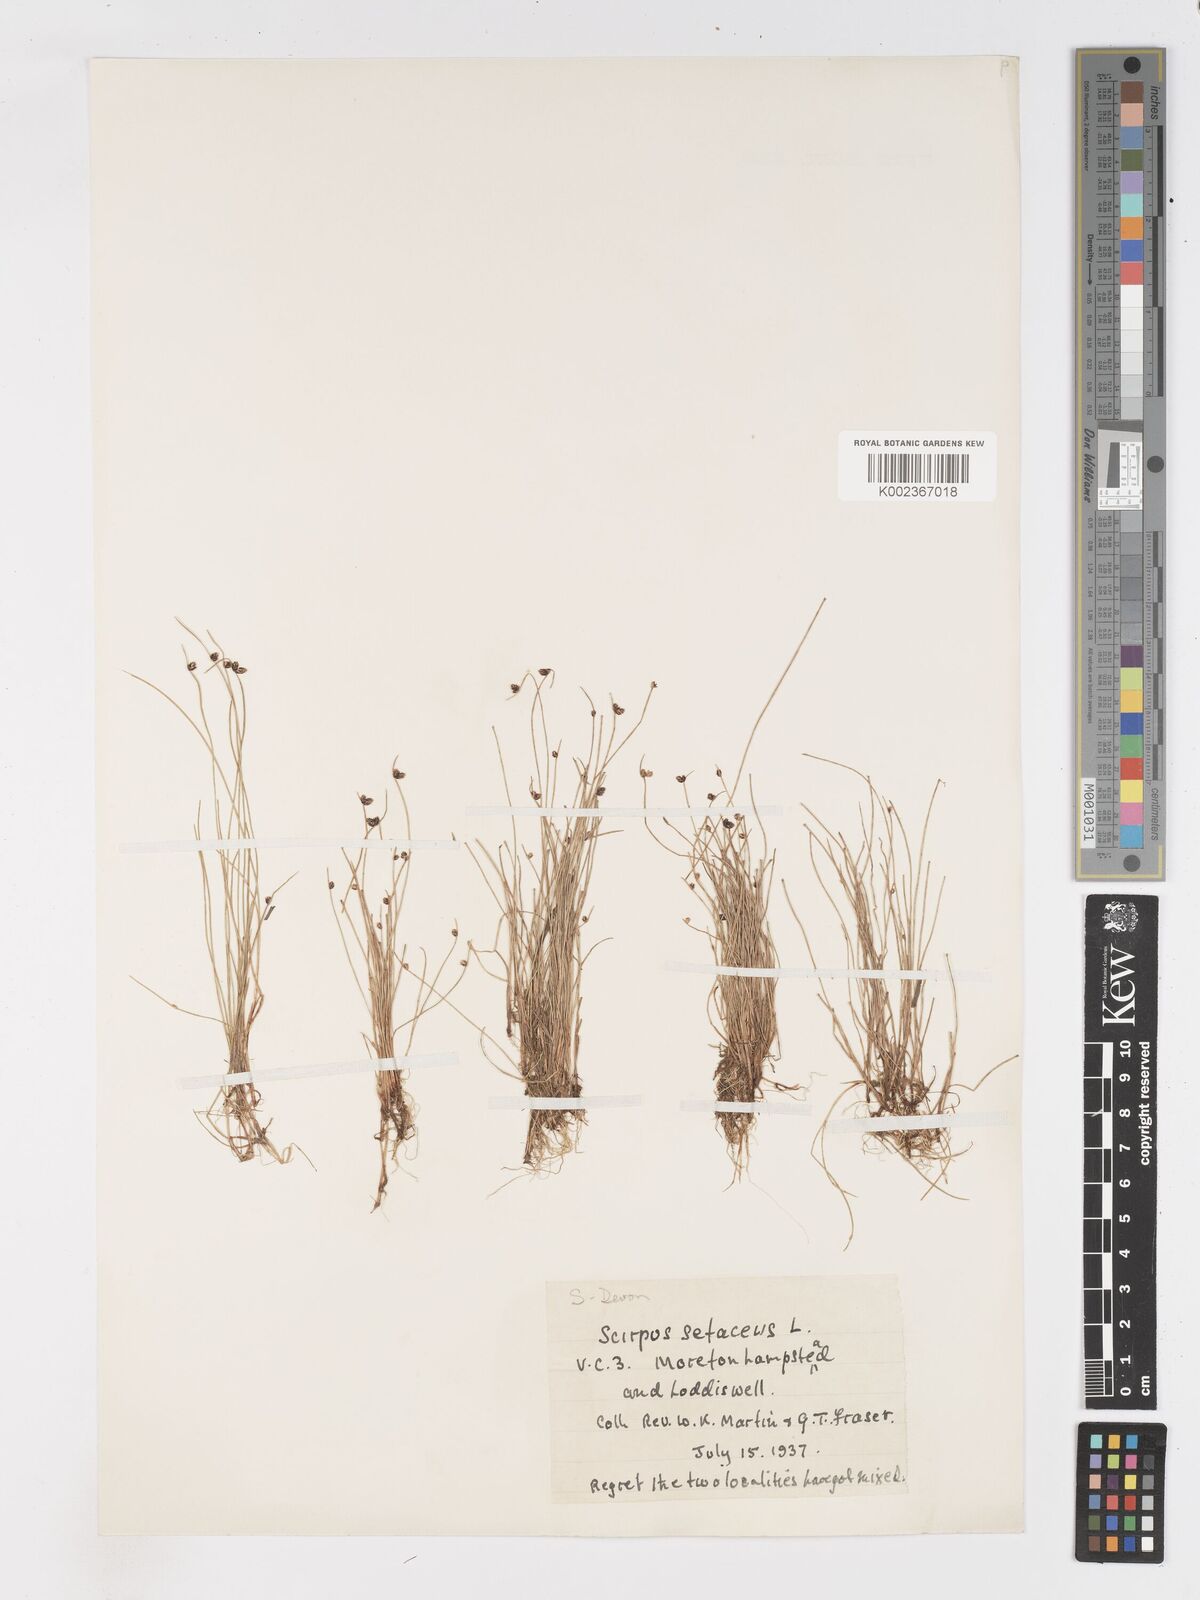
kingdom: Plantae
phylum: Tracheophyta
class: Liliopsida
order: Poales
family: Cyperaceae
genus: Isolepis
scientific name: Isolepis setacea
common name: Bristle club-rush
